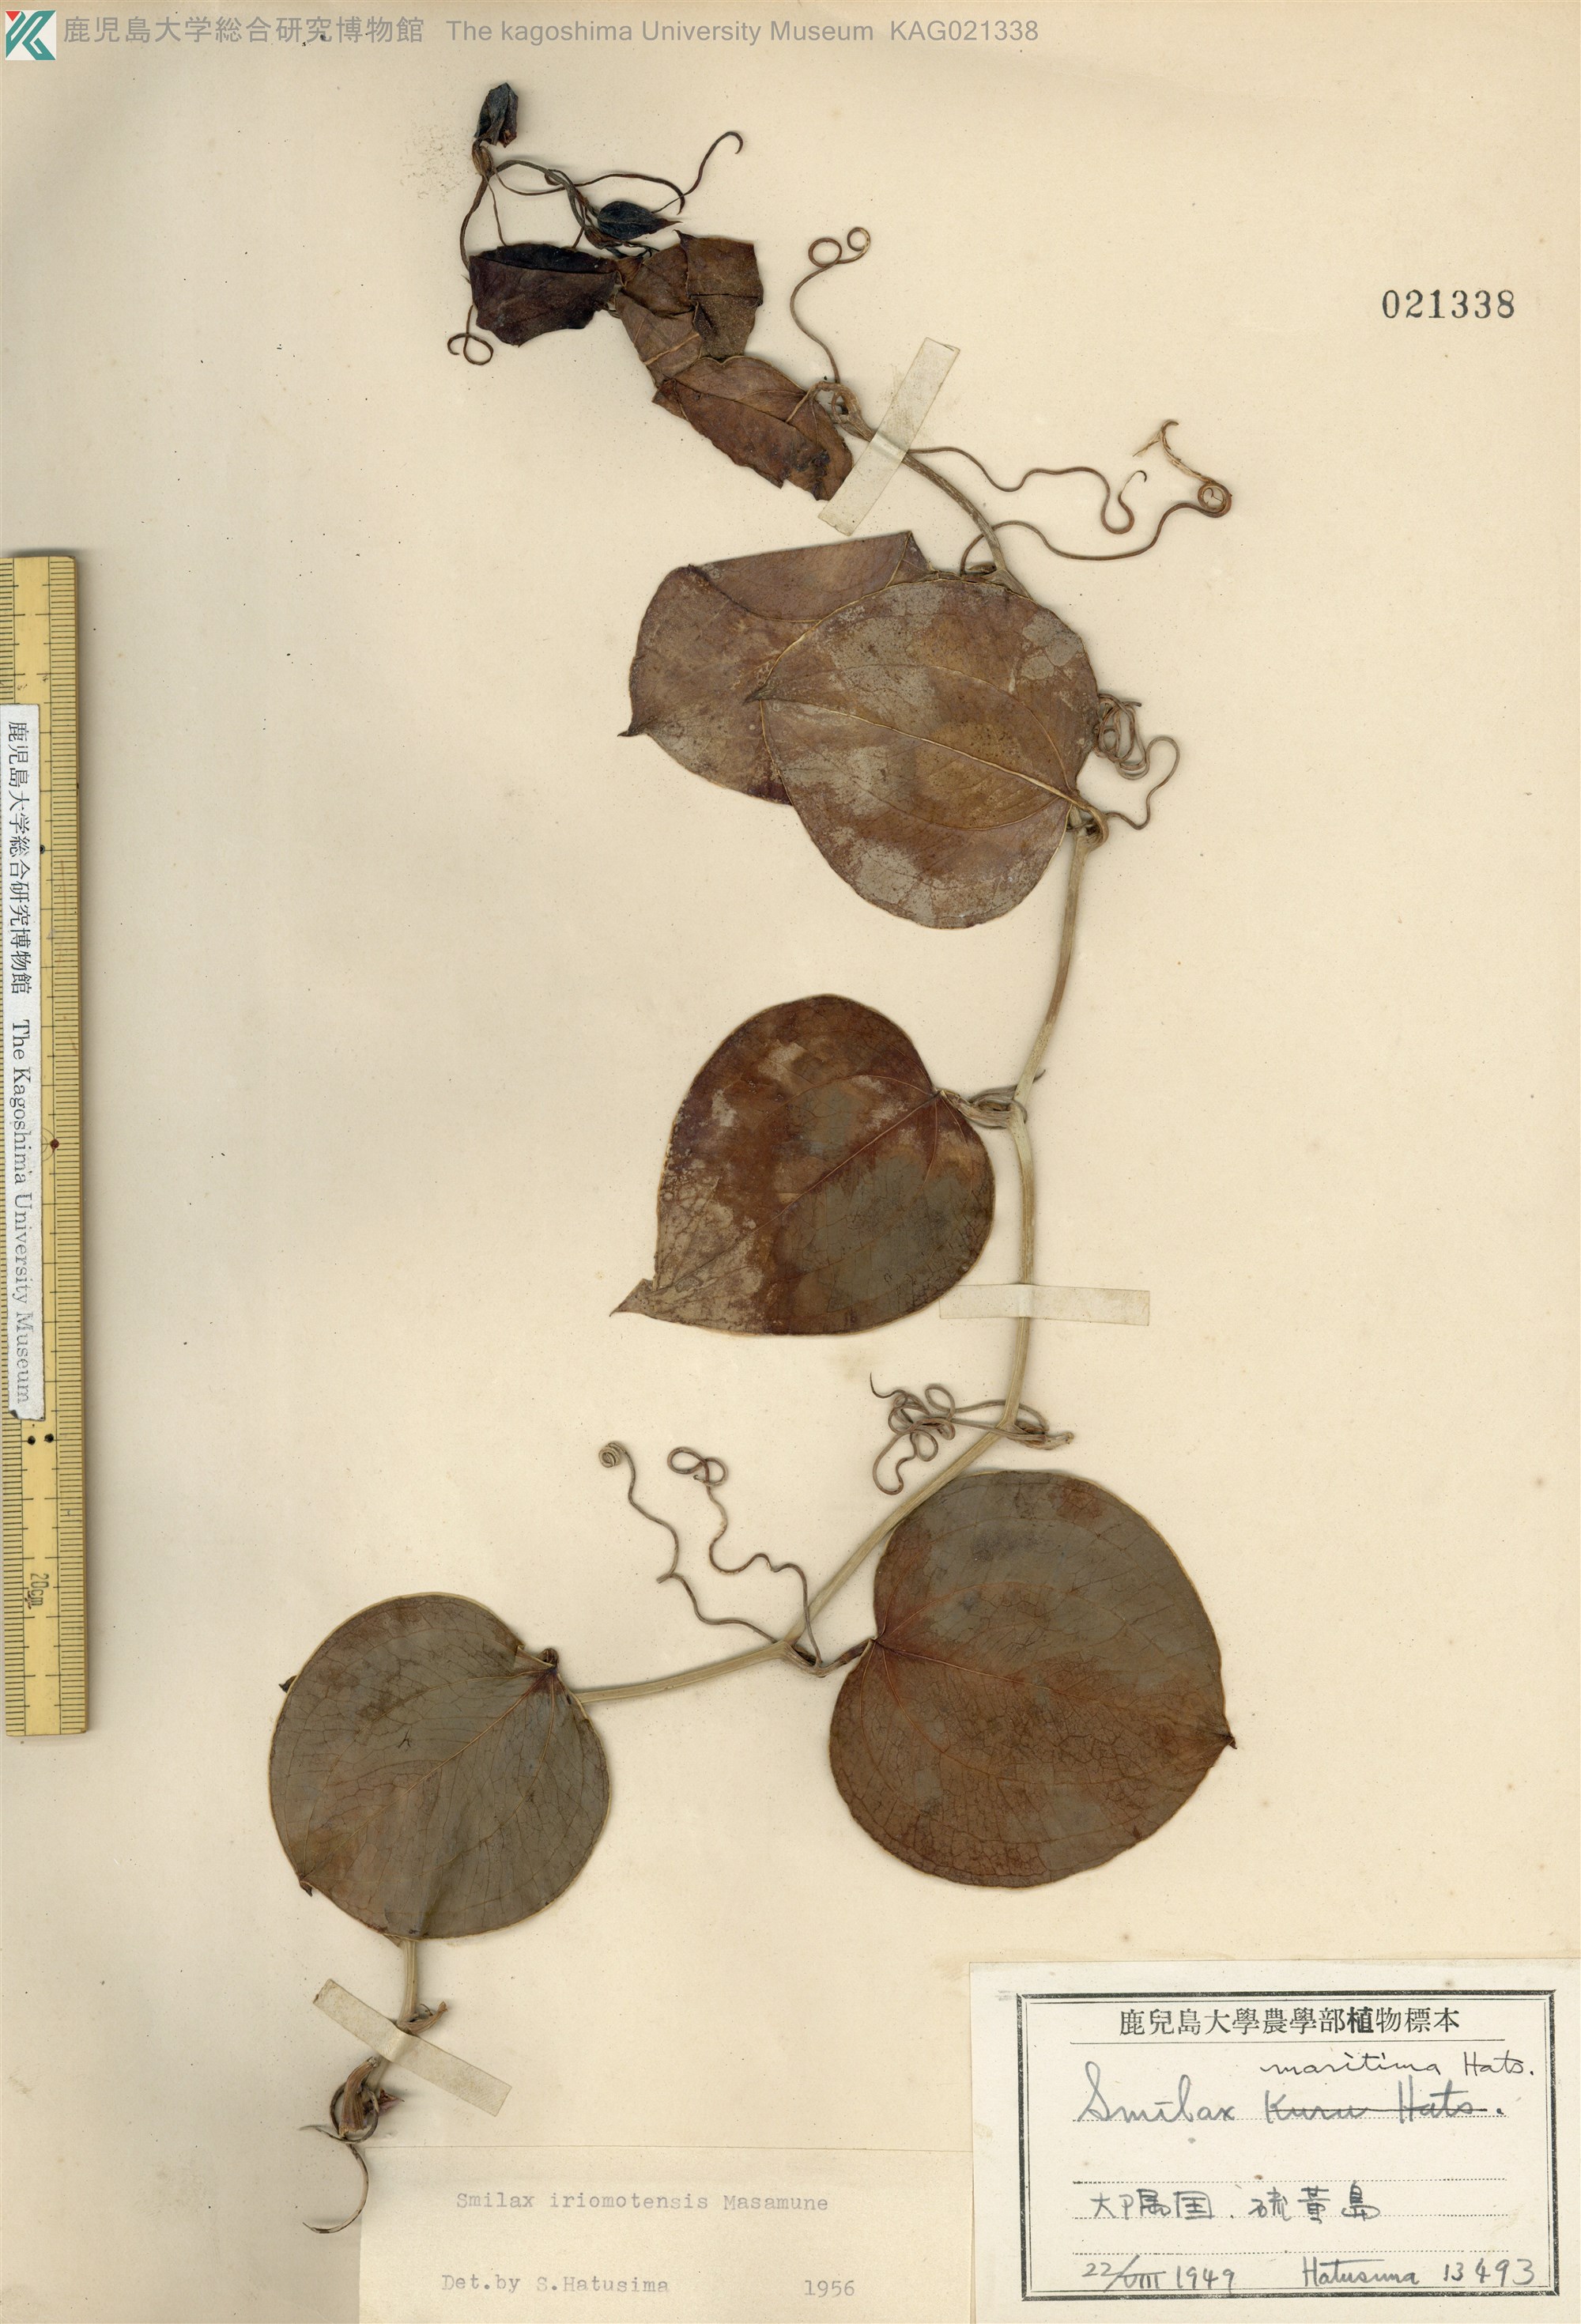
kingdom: Plantae
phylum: Tracheophyta
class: Liliopsida
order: Liliales
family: Smilacaceae
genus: Smilax
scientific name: Smilax sebeana
